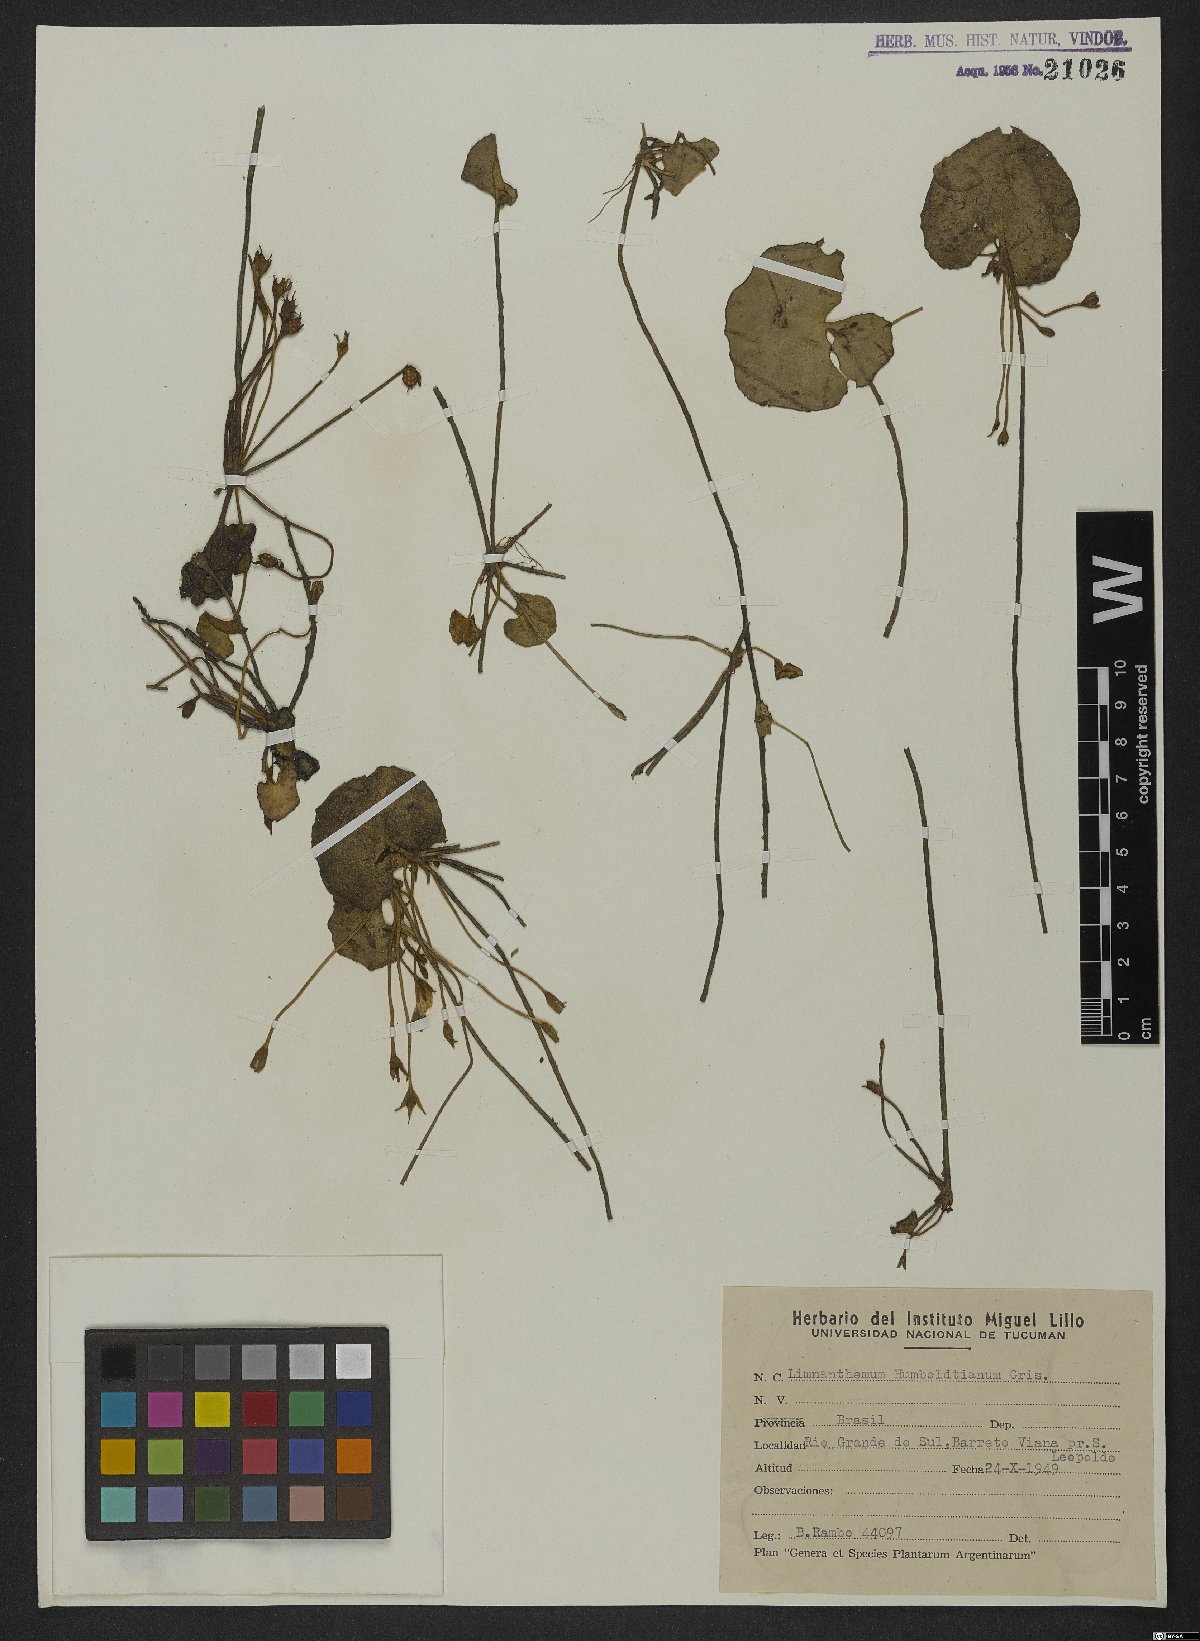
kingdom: Plantae
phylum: Tracheophyta
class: Magnoliopsida
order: Asterales
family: Menyanthaceae
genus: Nymphoides
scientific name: Nymphoides humboldtiana
